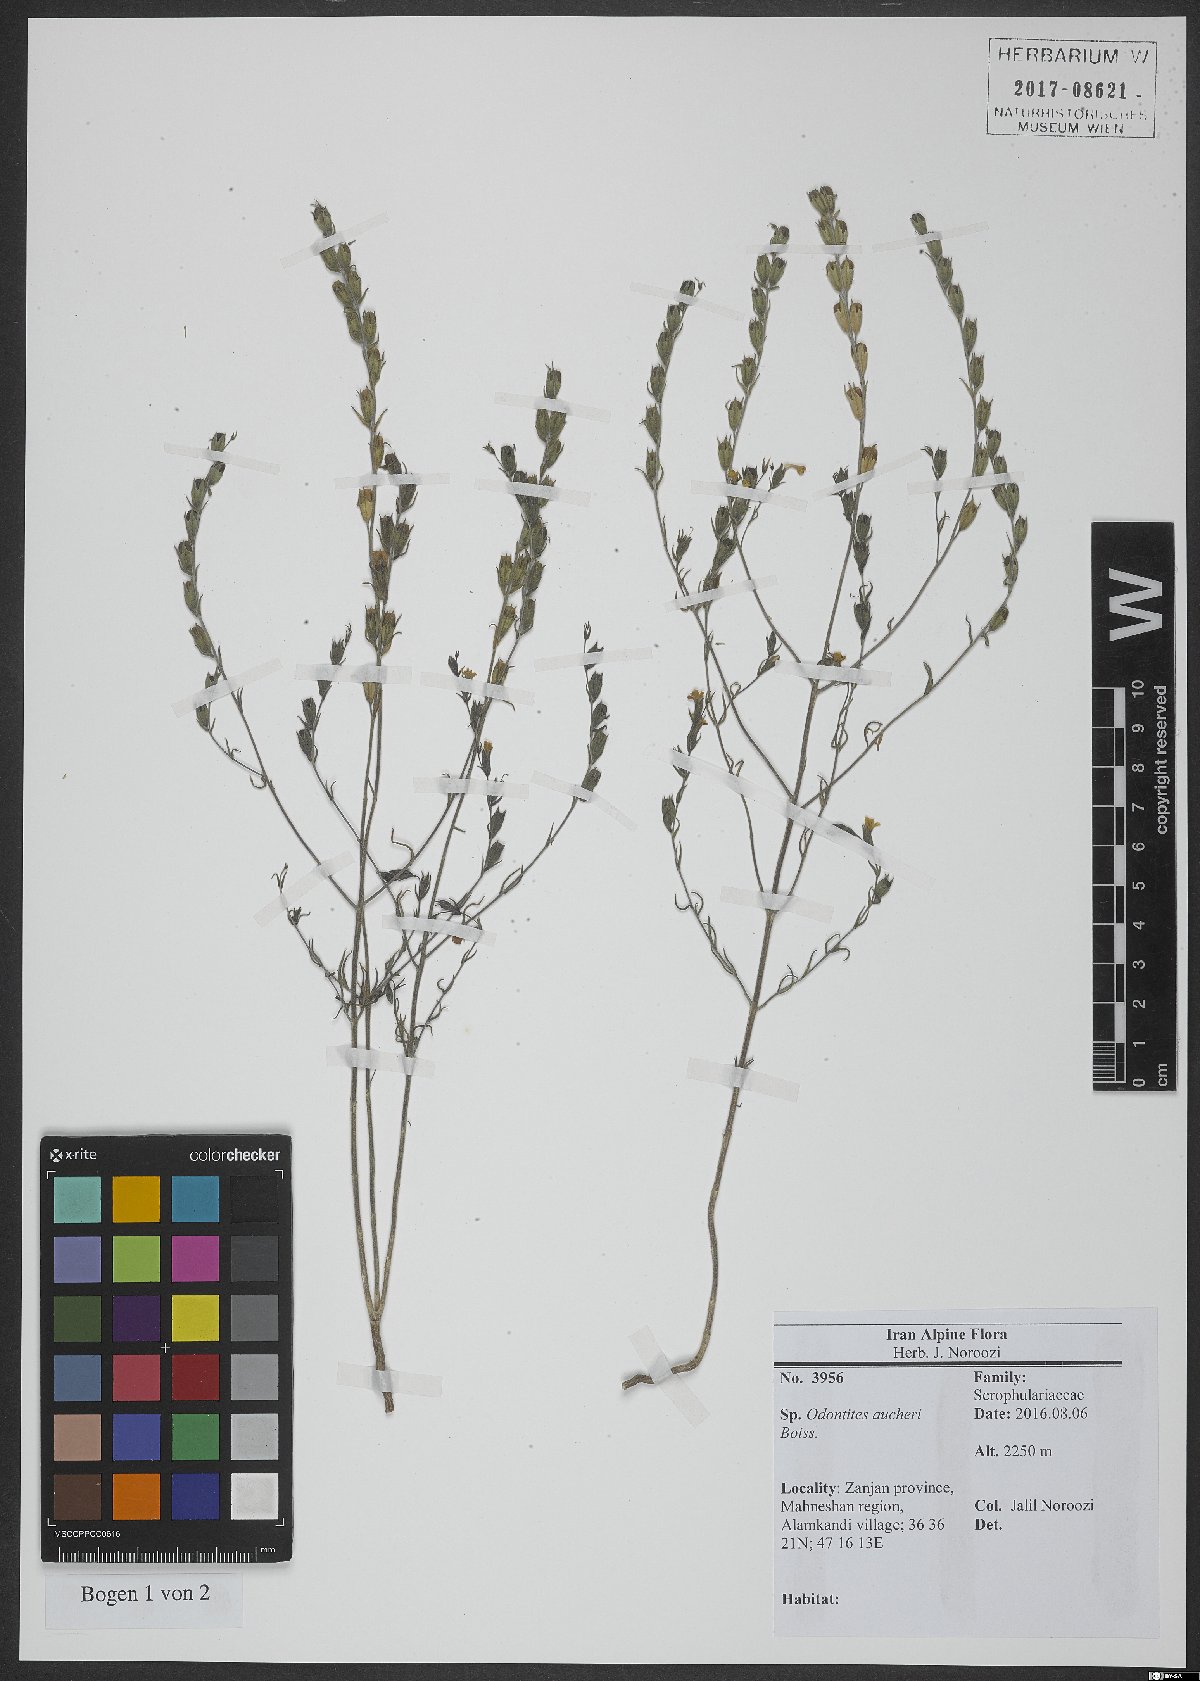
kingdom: Plantae
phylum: Tracheophyta
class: Magnoliopsida
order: Lamiales
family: Orobanchaceae
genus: Odontites
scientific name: Odontites aucheri
